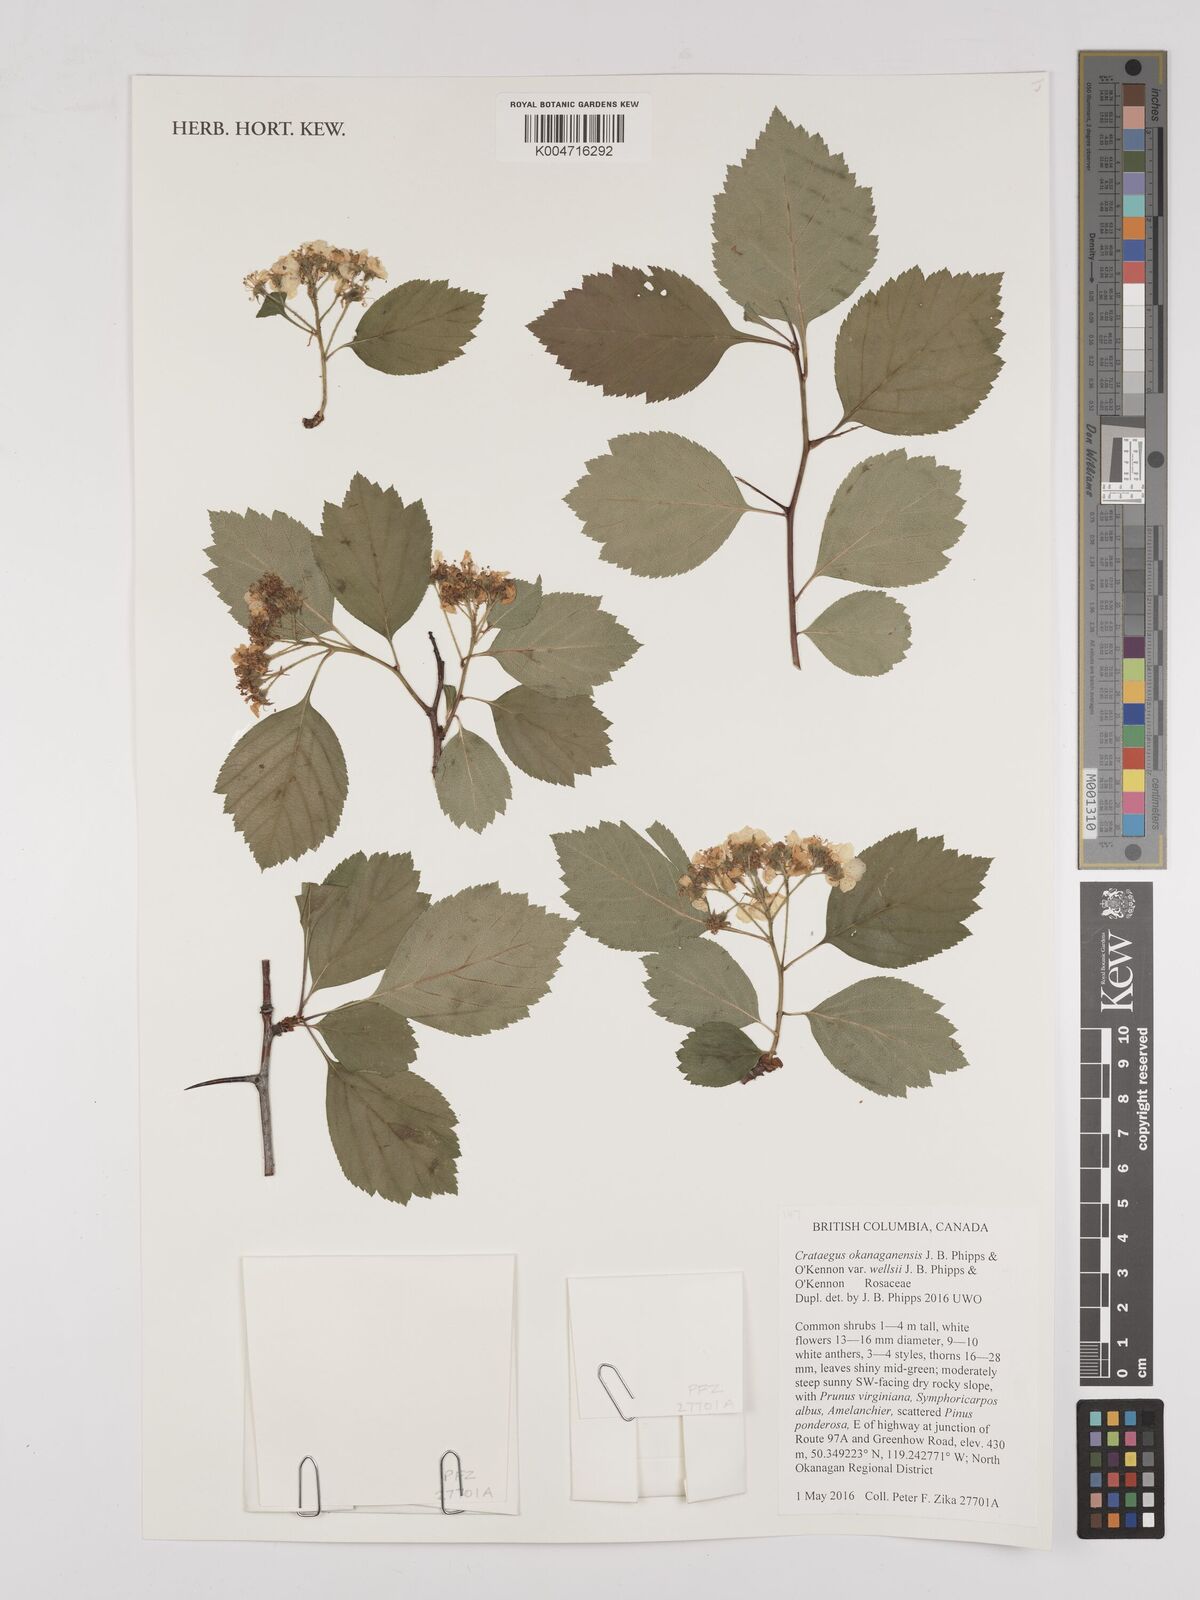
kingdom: Plantae
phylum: Tracheophyta
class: Magnoliopsida
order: Rosales
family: Rosaceae
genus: Crataegus
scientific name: Crataegus okanaganensis
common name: Okanagan valley hawthorn
